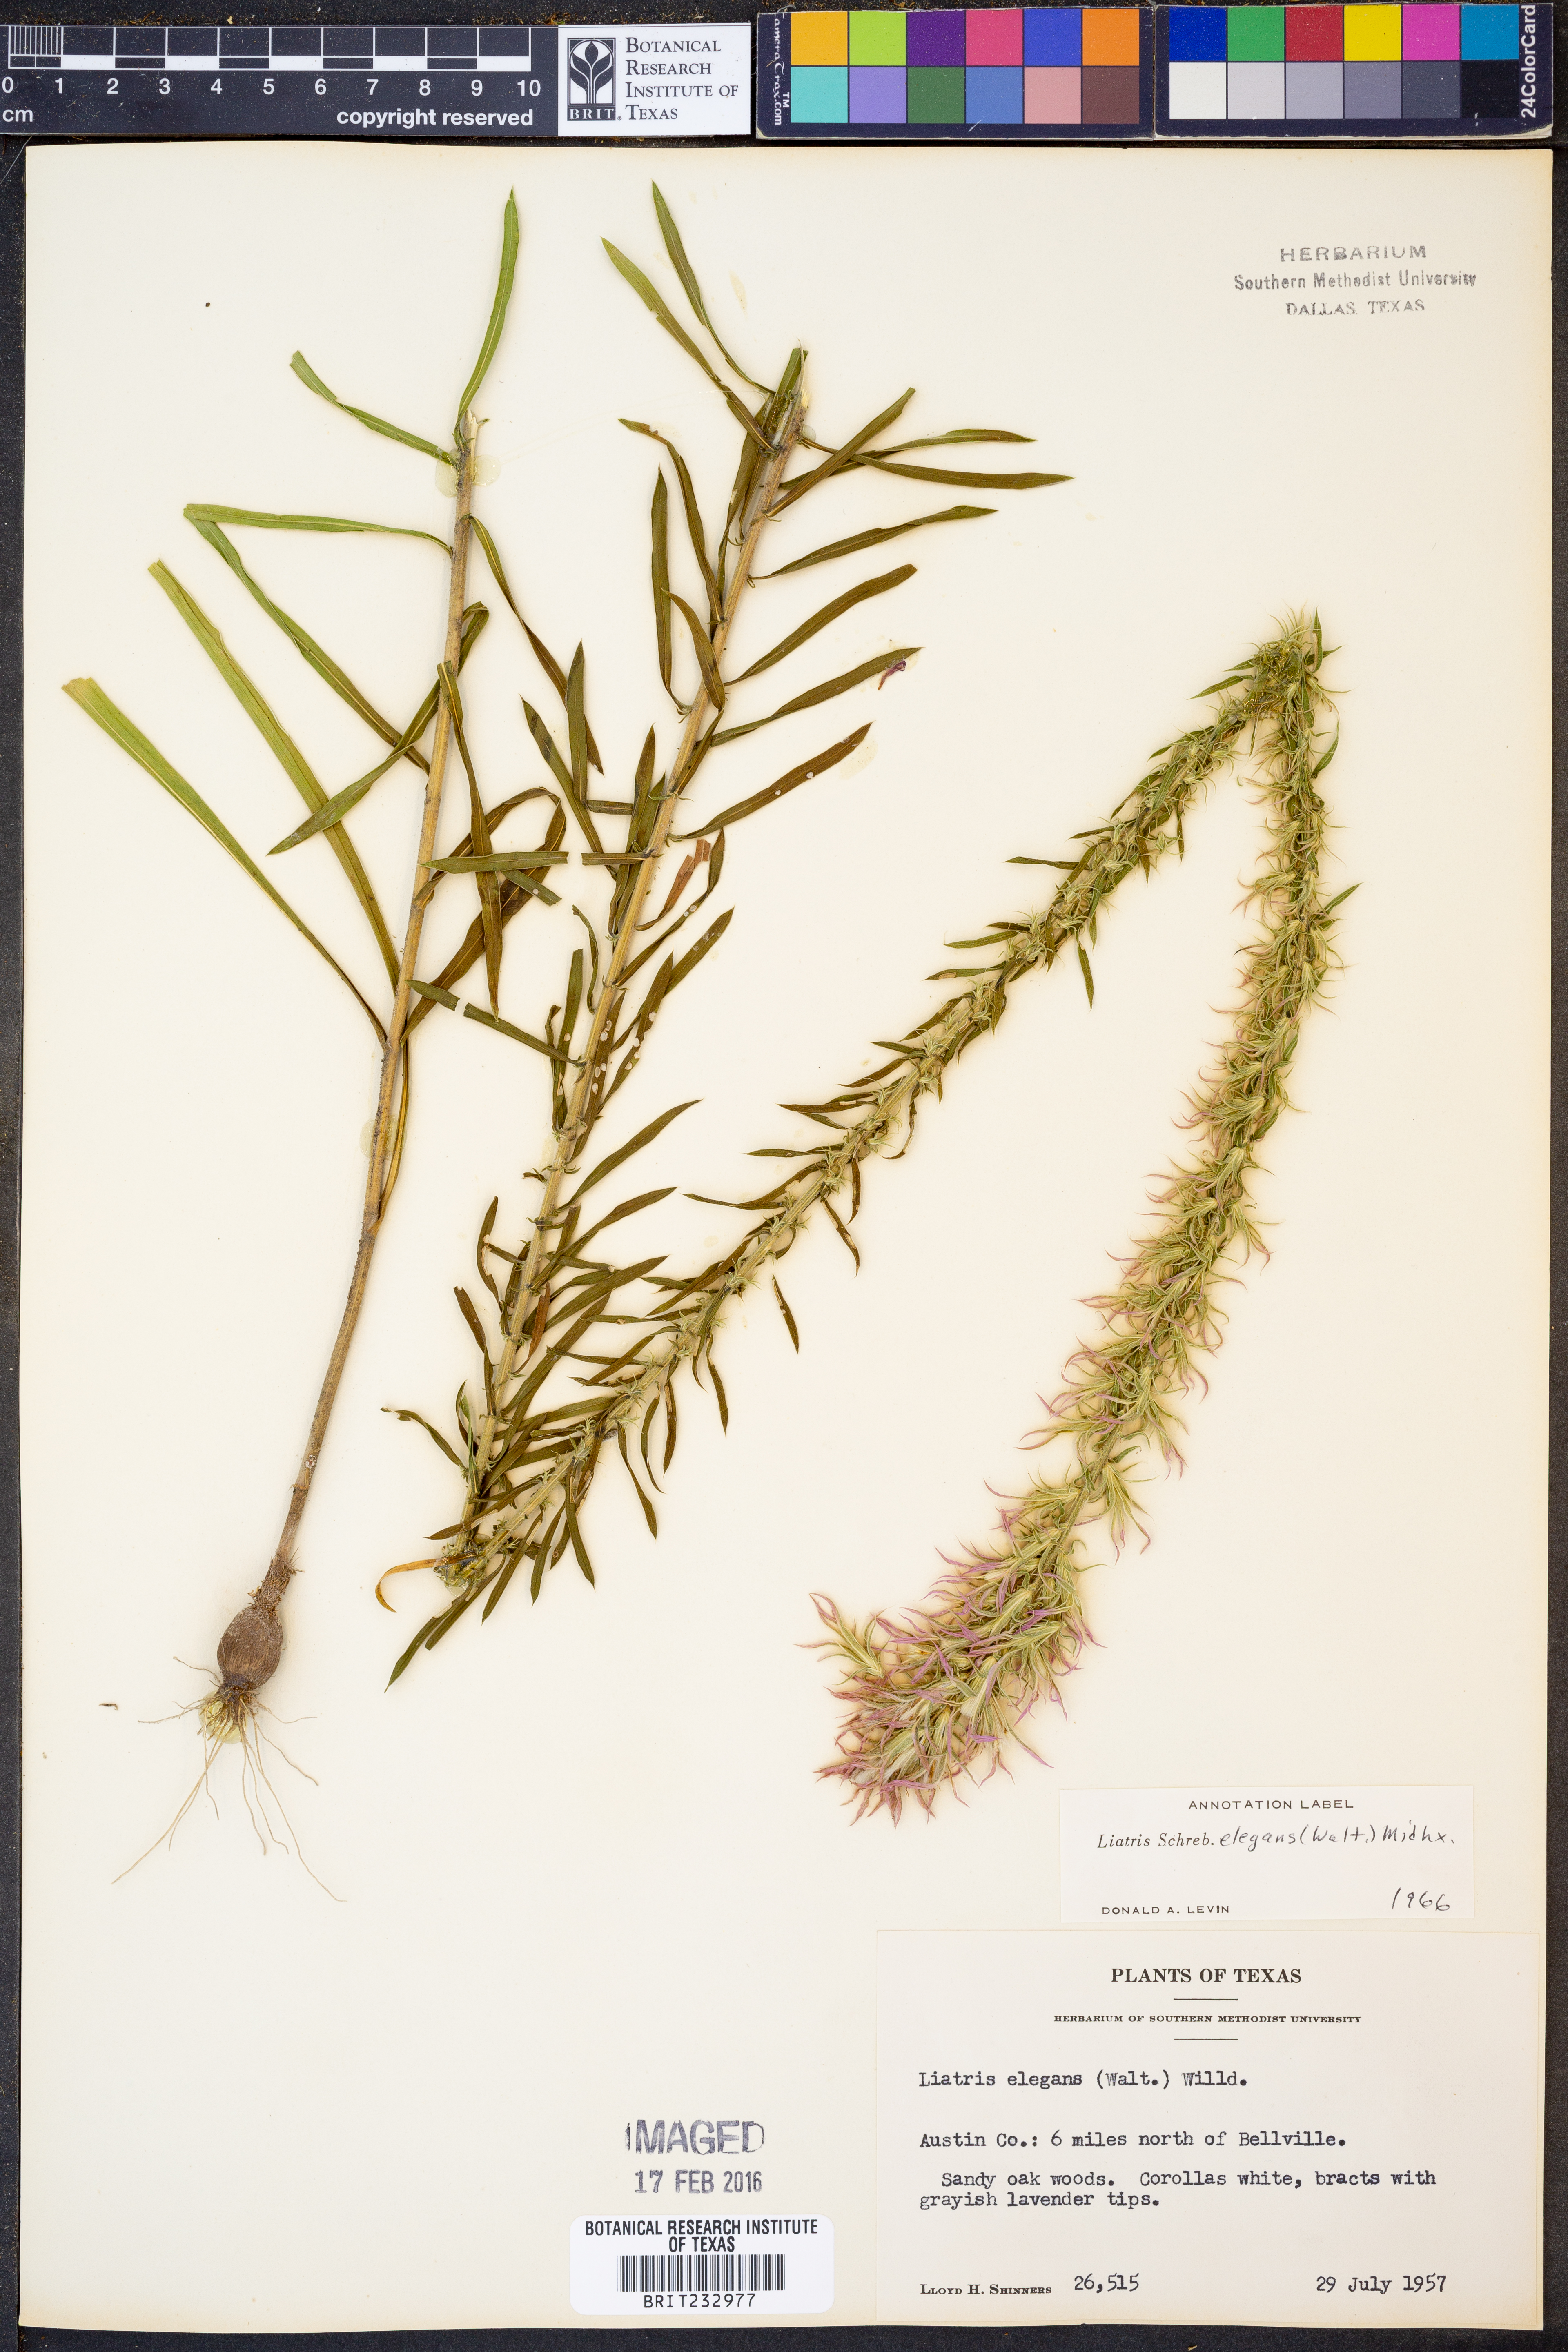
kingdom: Plantae
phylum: Tracheophyta
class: Magnoliopsida
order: Asterales
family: Asteraceae
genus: Liatris
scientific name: Liatris elegans
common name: Pinkscale gayfeather
